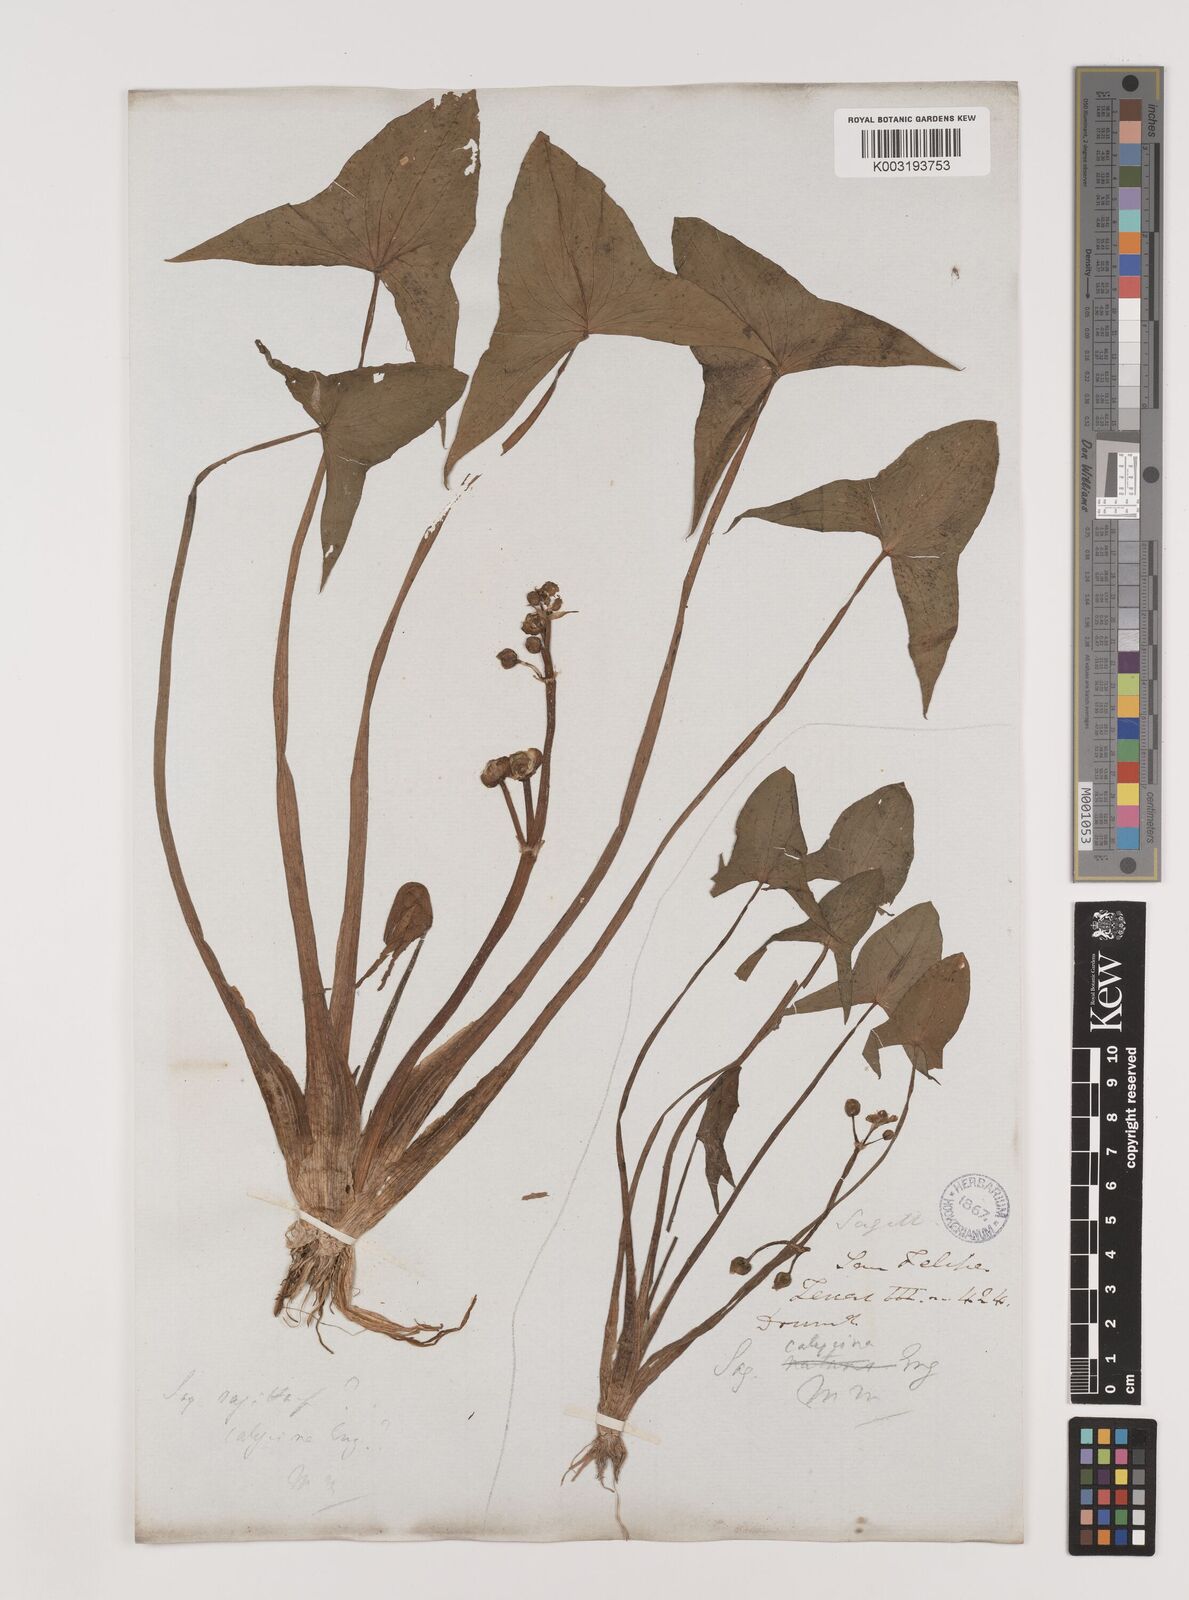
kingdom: Plantae
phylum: Tracheophyta
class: Liliopsida
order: Alismatales
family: Alismataceae
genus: Sagittaria
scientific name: Sagittaria montevidensis
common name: Giant arrowhead
